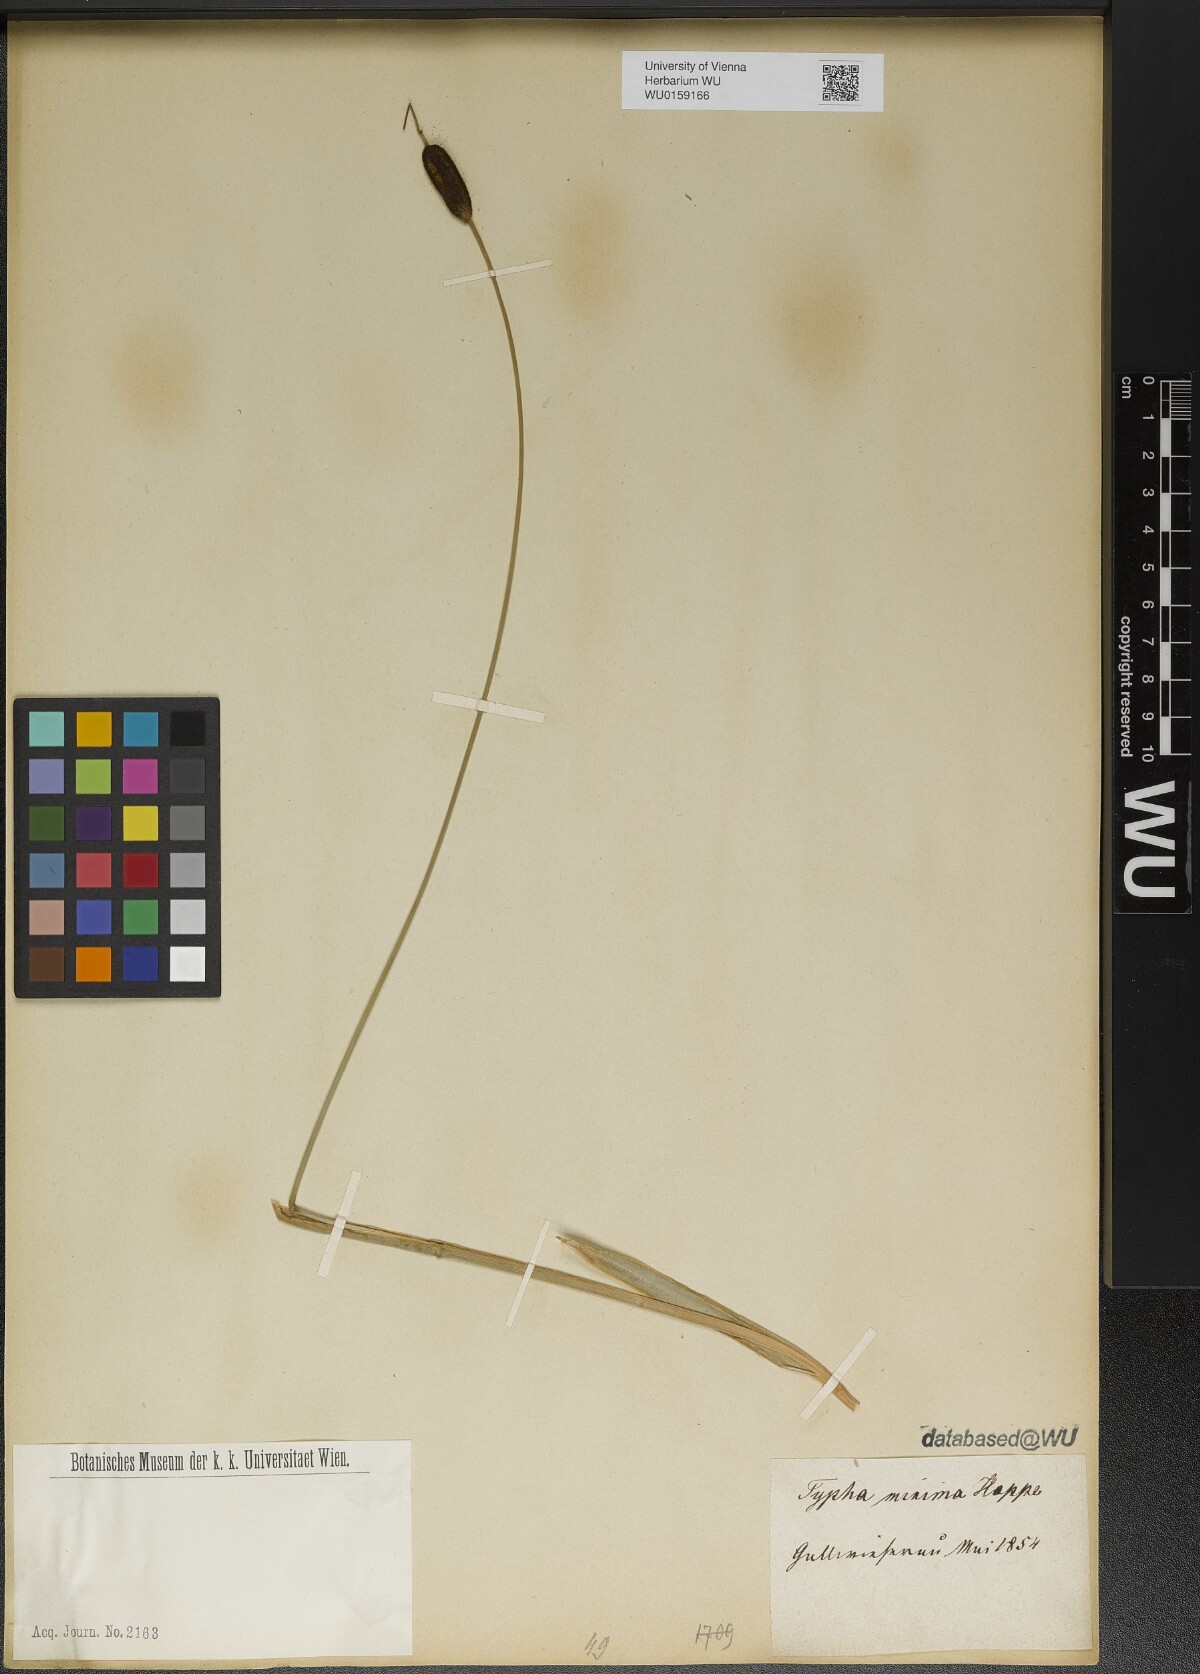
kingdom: Plantae
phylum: Tracheophyta
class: Liliopsida
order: Poales
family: Typhaceae
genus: Typha
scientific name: Typha minima
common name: Dwarf bulrush
